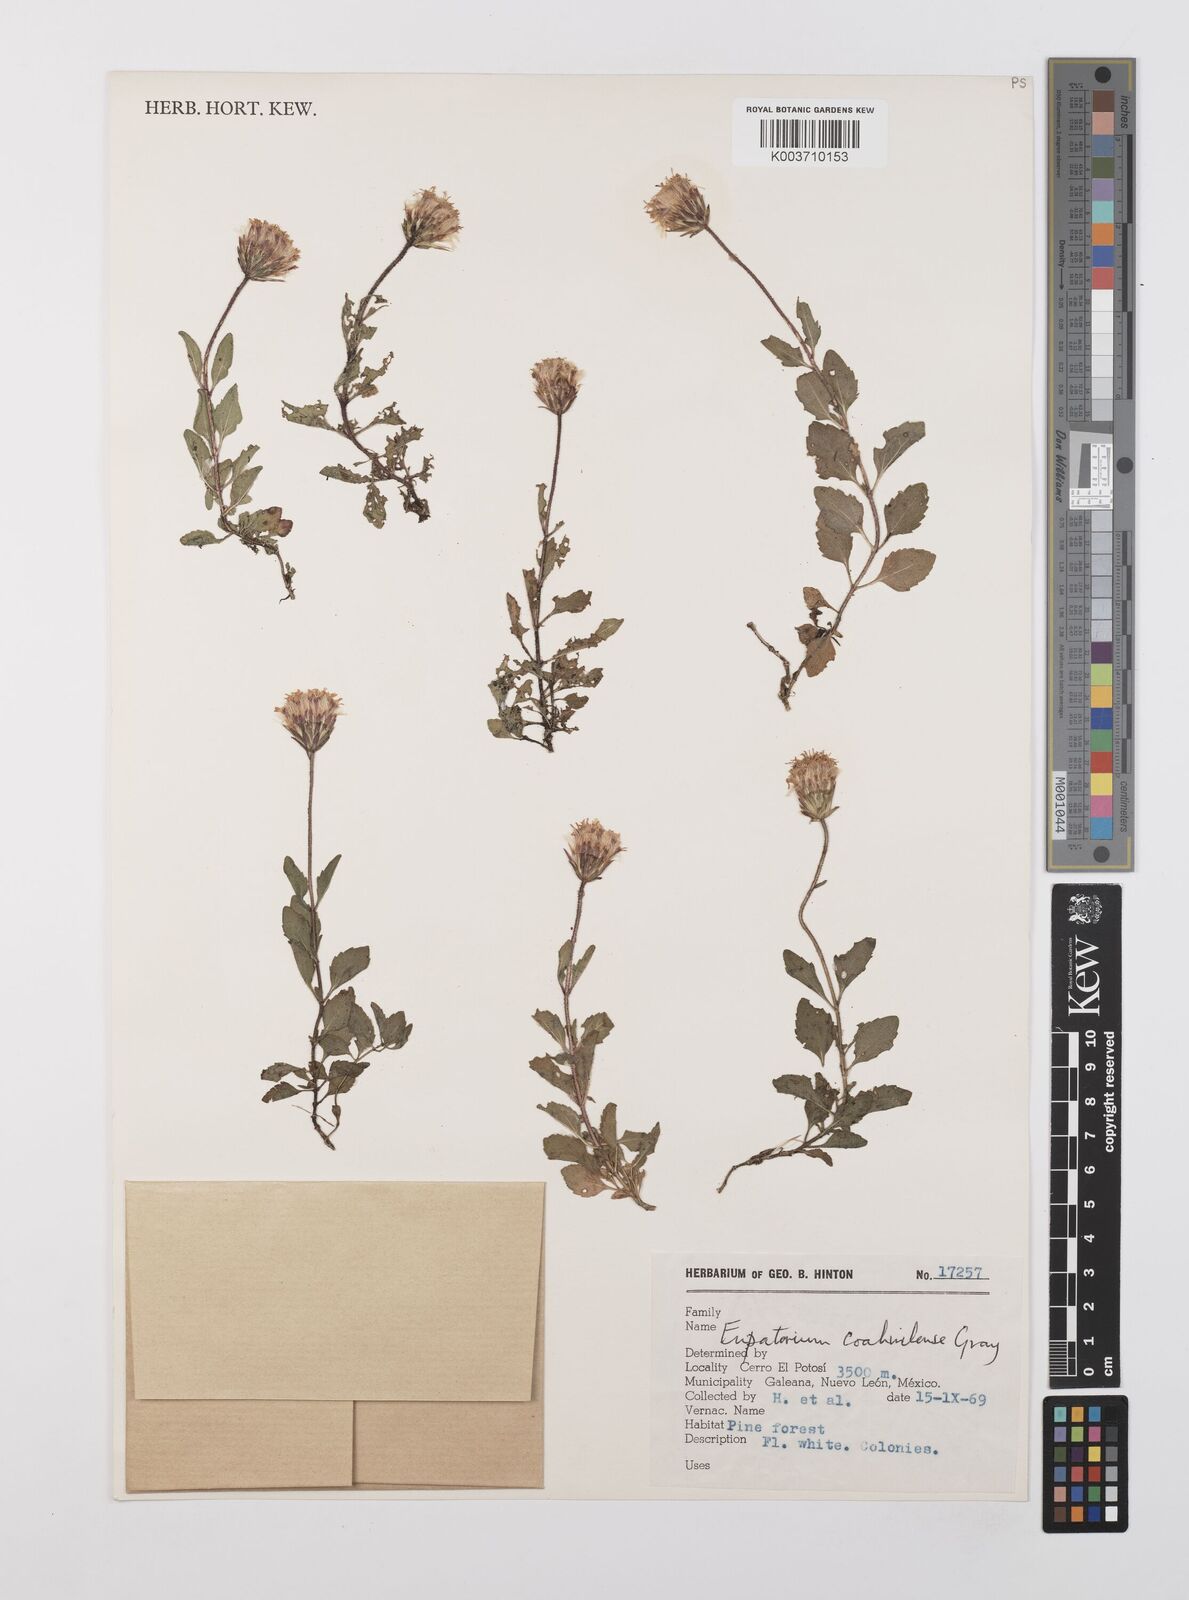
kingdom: Plantae
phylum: Tracheophyta
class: Magnoliopsida
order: Asterales
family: Asteraceae
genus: Brickellia
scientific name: Brickellia coahuilensis
